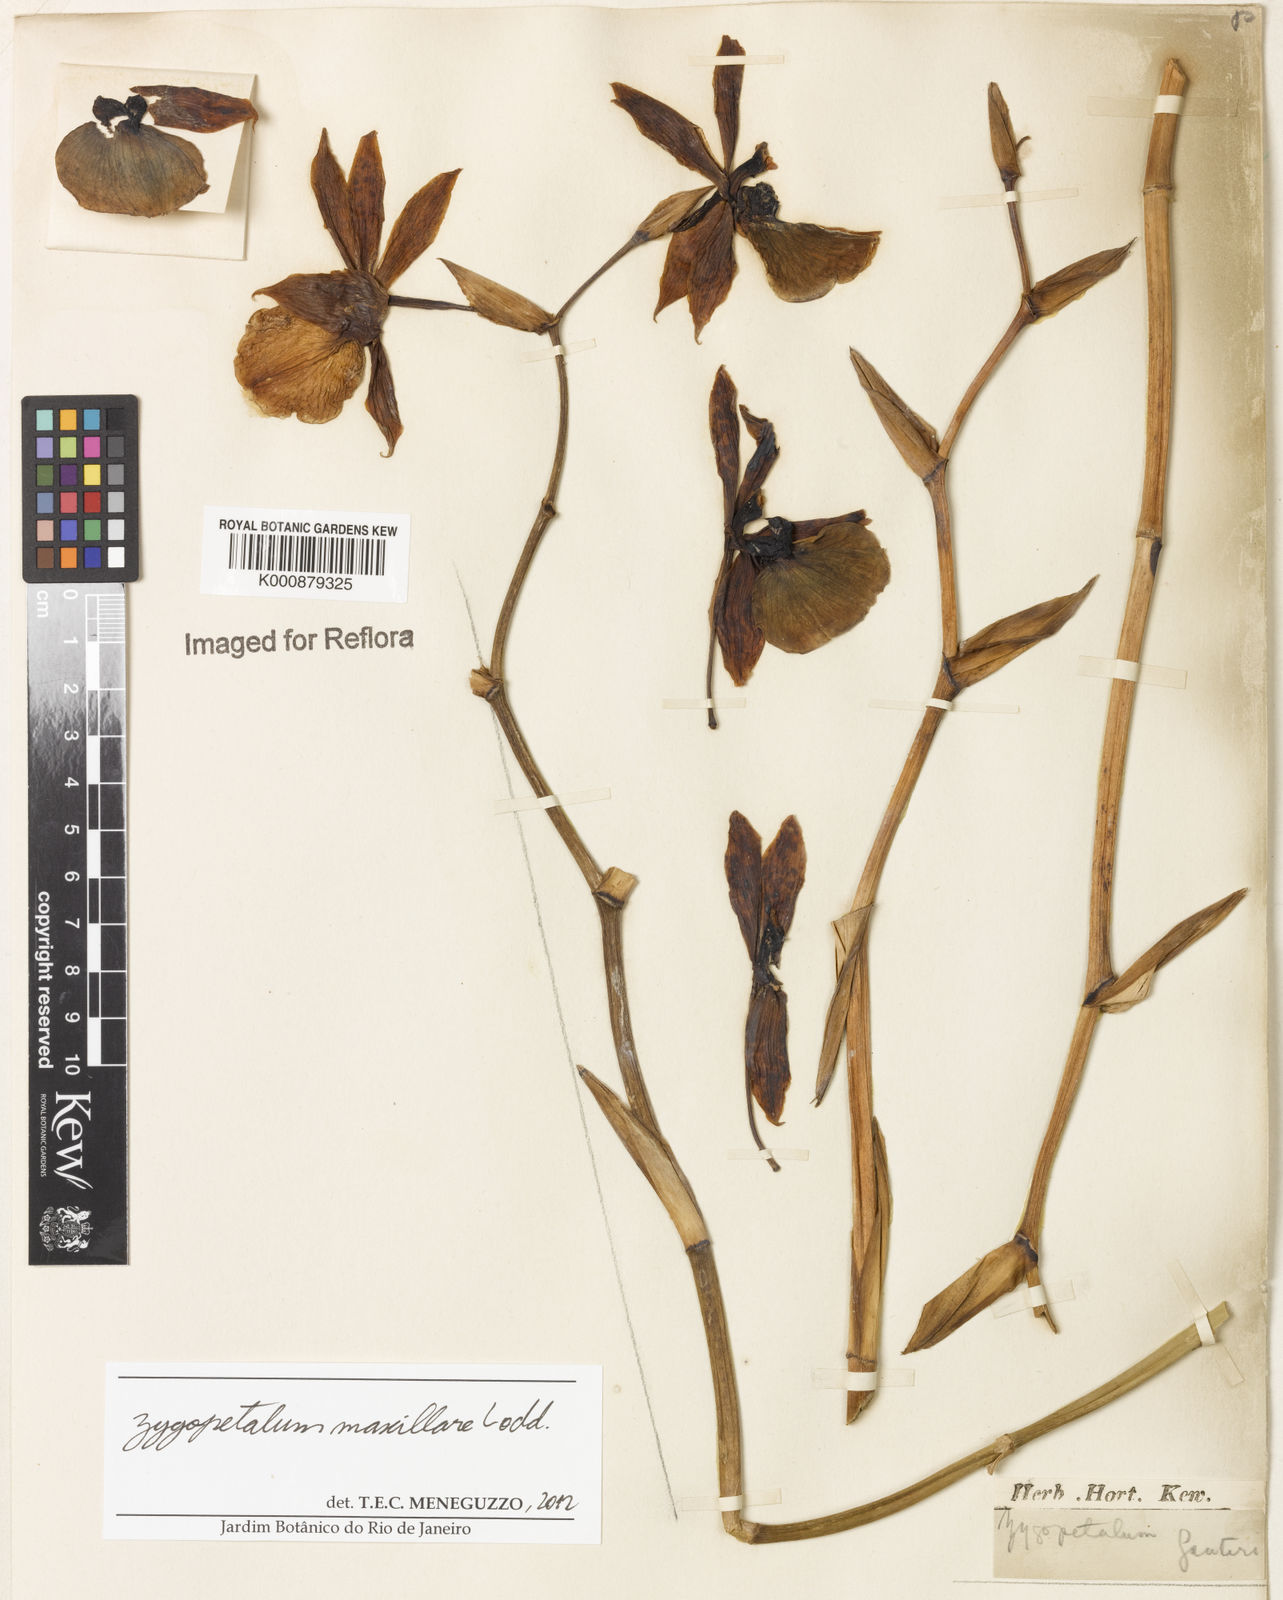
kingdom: Plantae
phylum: Tracheophyta
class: Liliopsida
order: Asparagales
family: Orchidaceae
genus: Zygopetalum
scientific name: Zygopetalum maxillare
